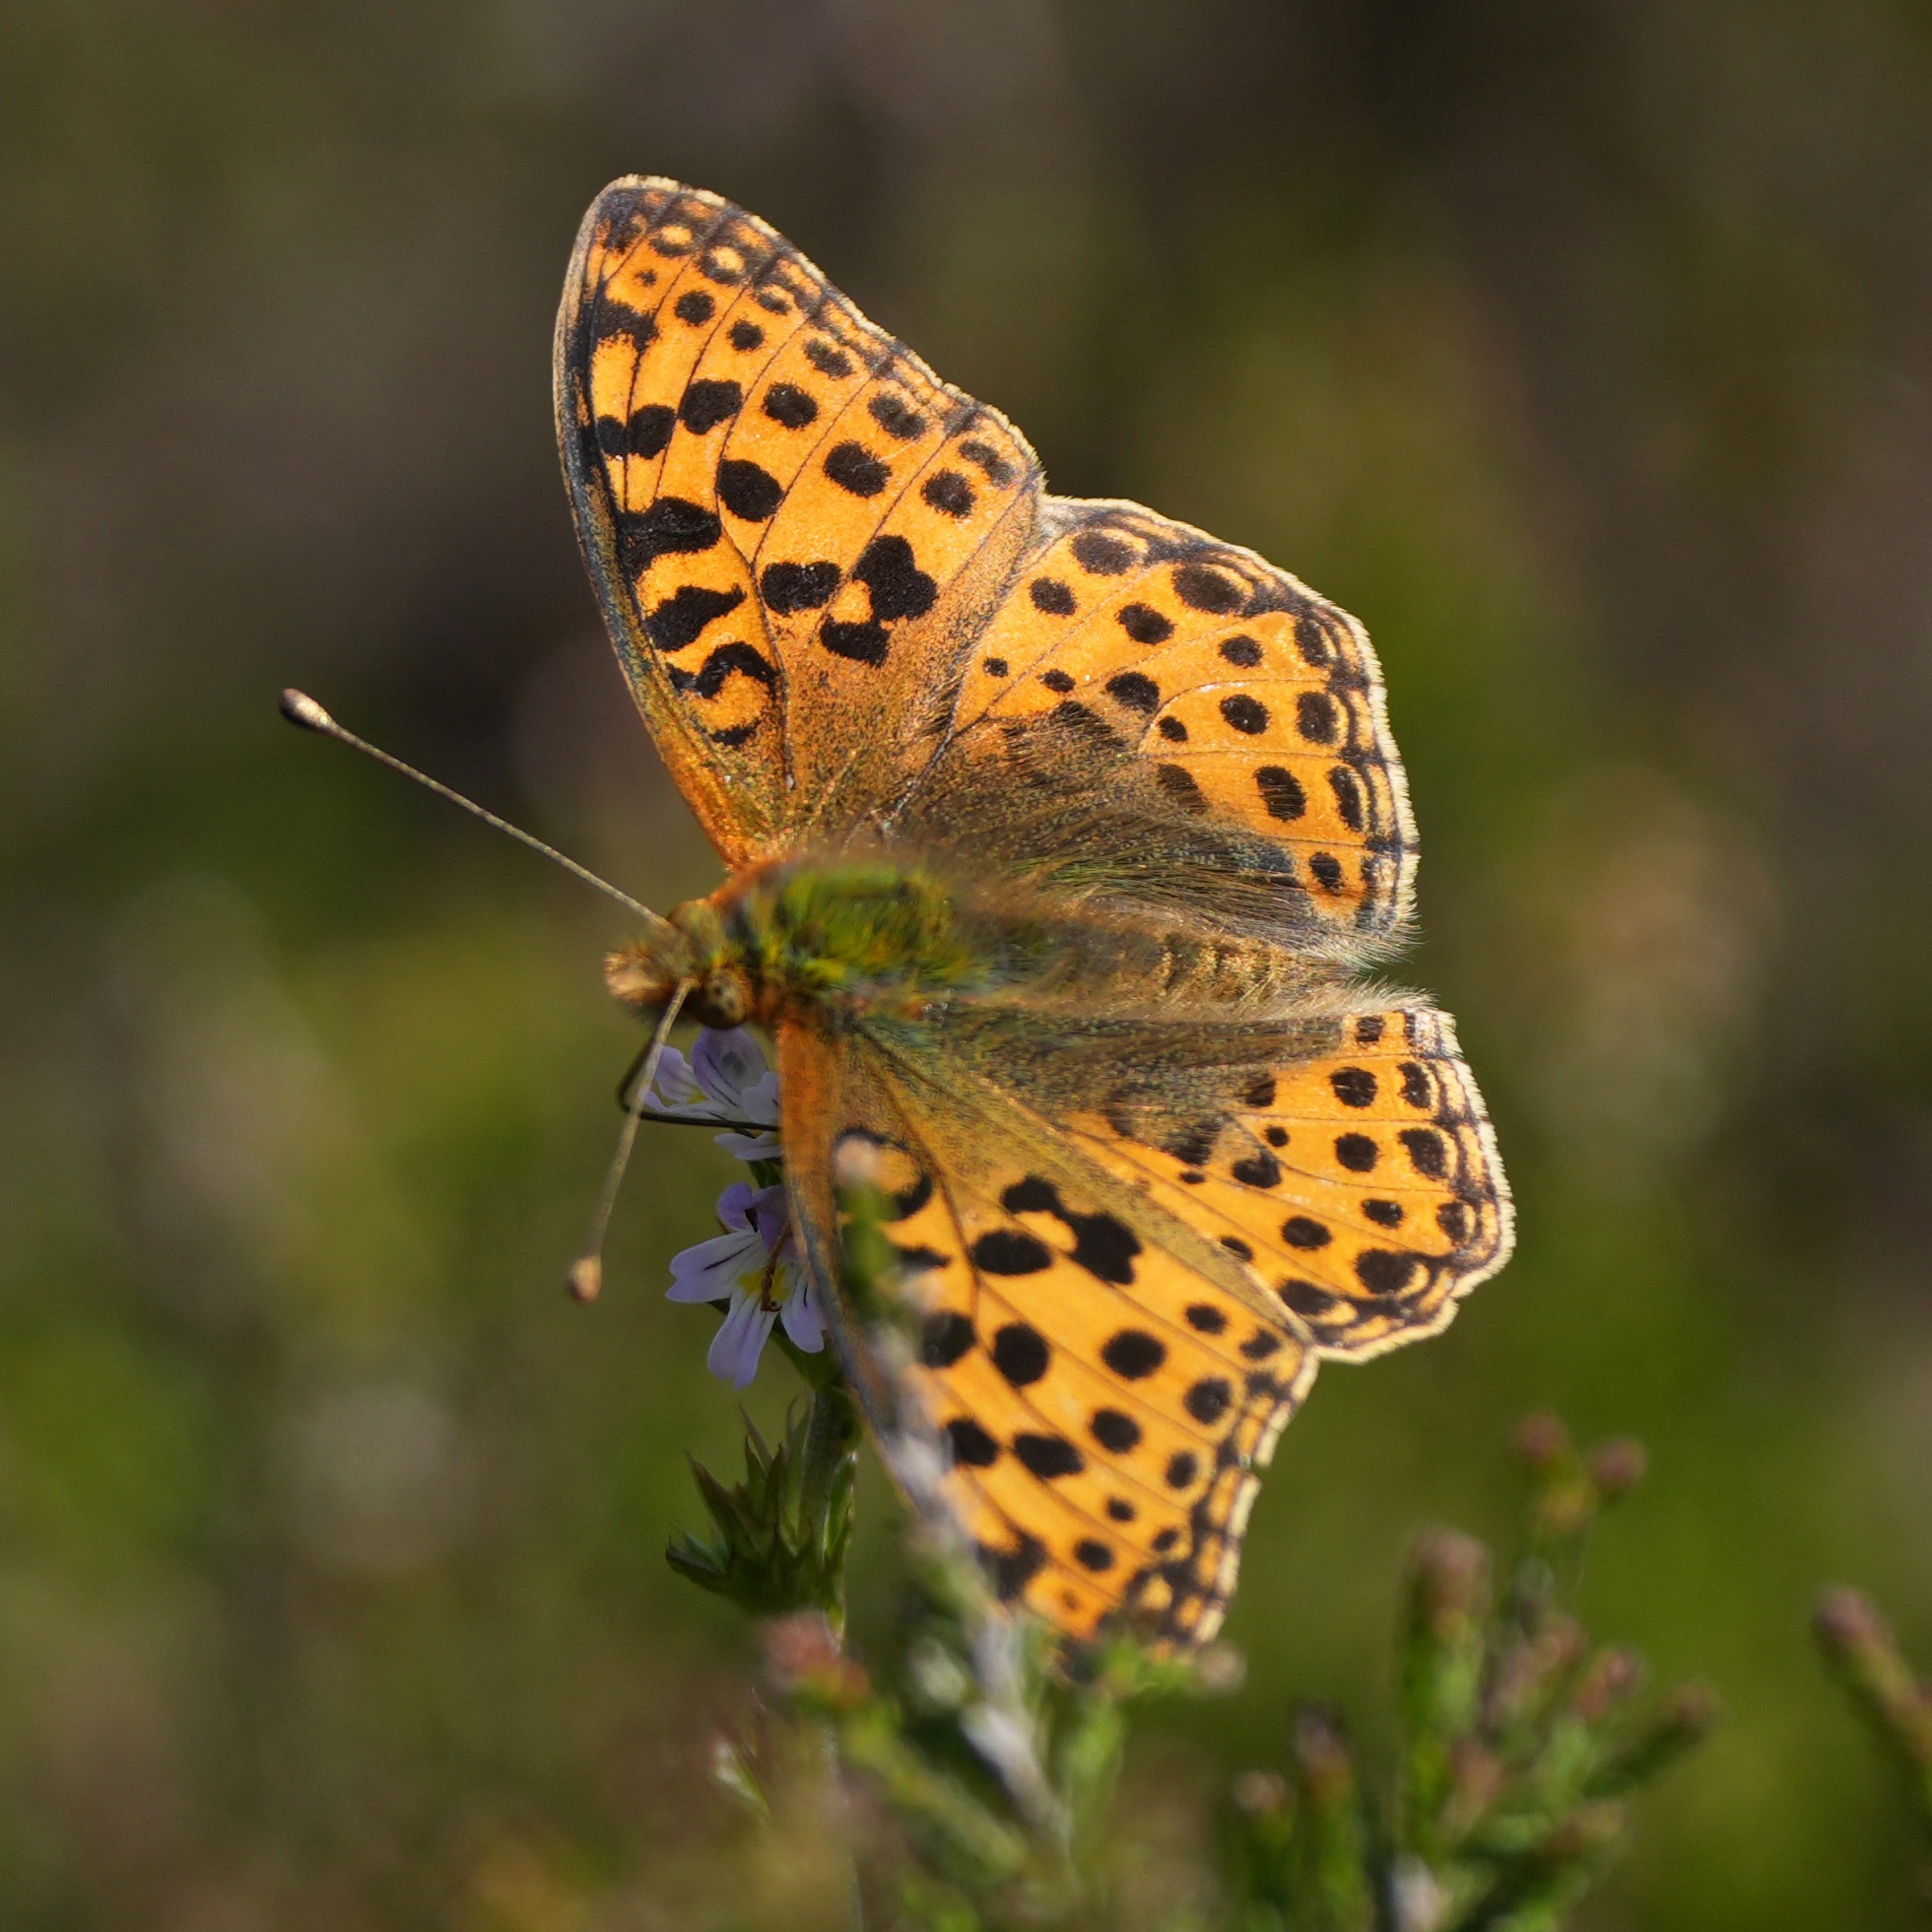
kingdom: Animalia
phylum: Arthropoda
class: Insecta
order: Lepidoptera
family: Nymphalidae
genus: Issoria
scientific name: Issoria lathonia
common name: Storplettet perlemorsommerfugl
